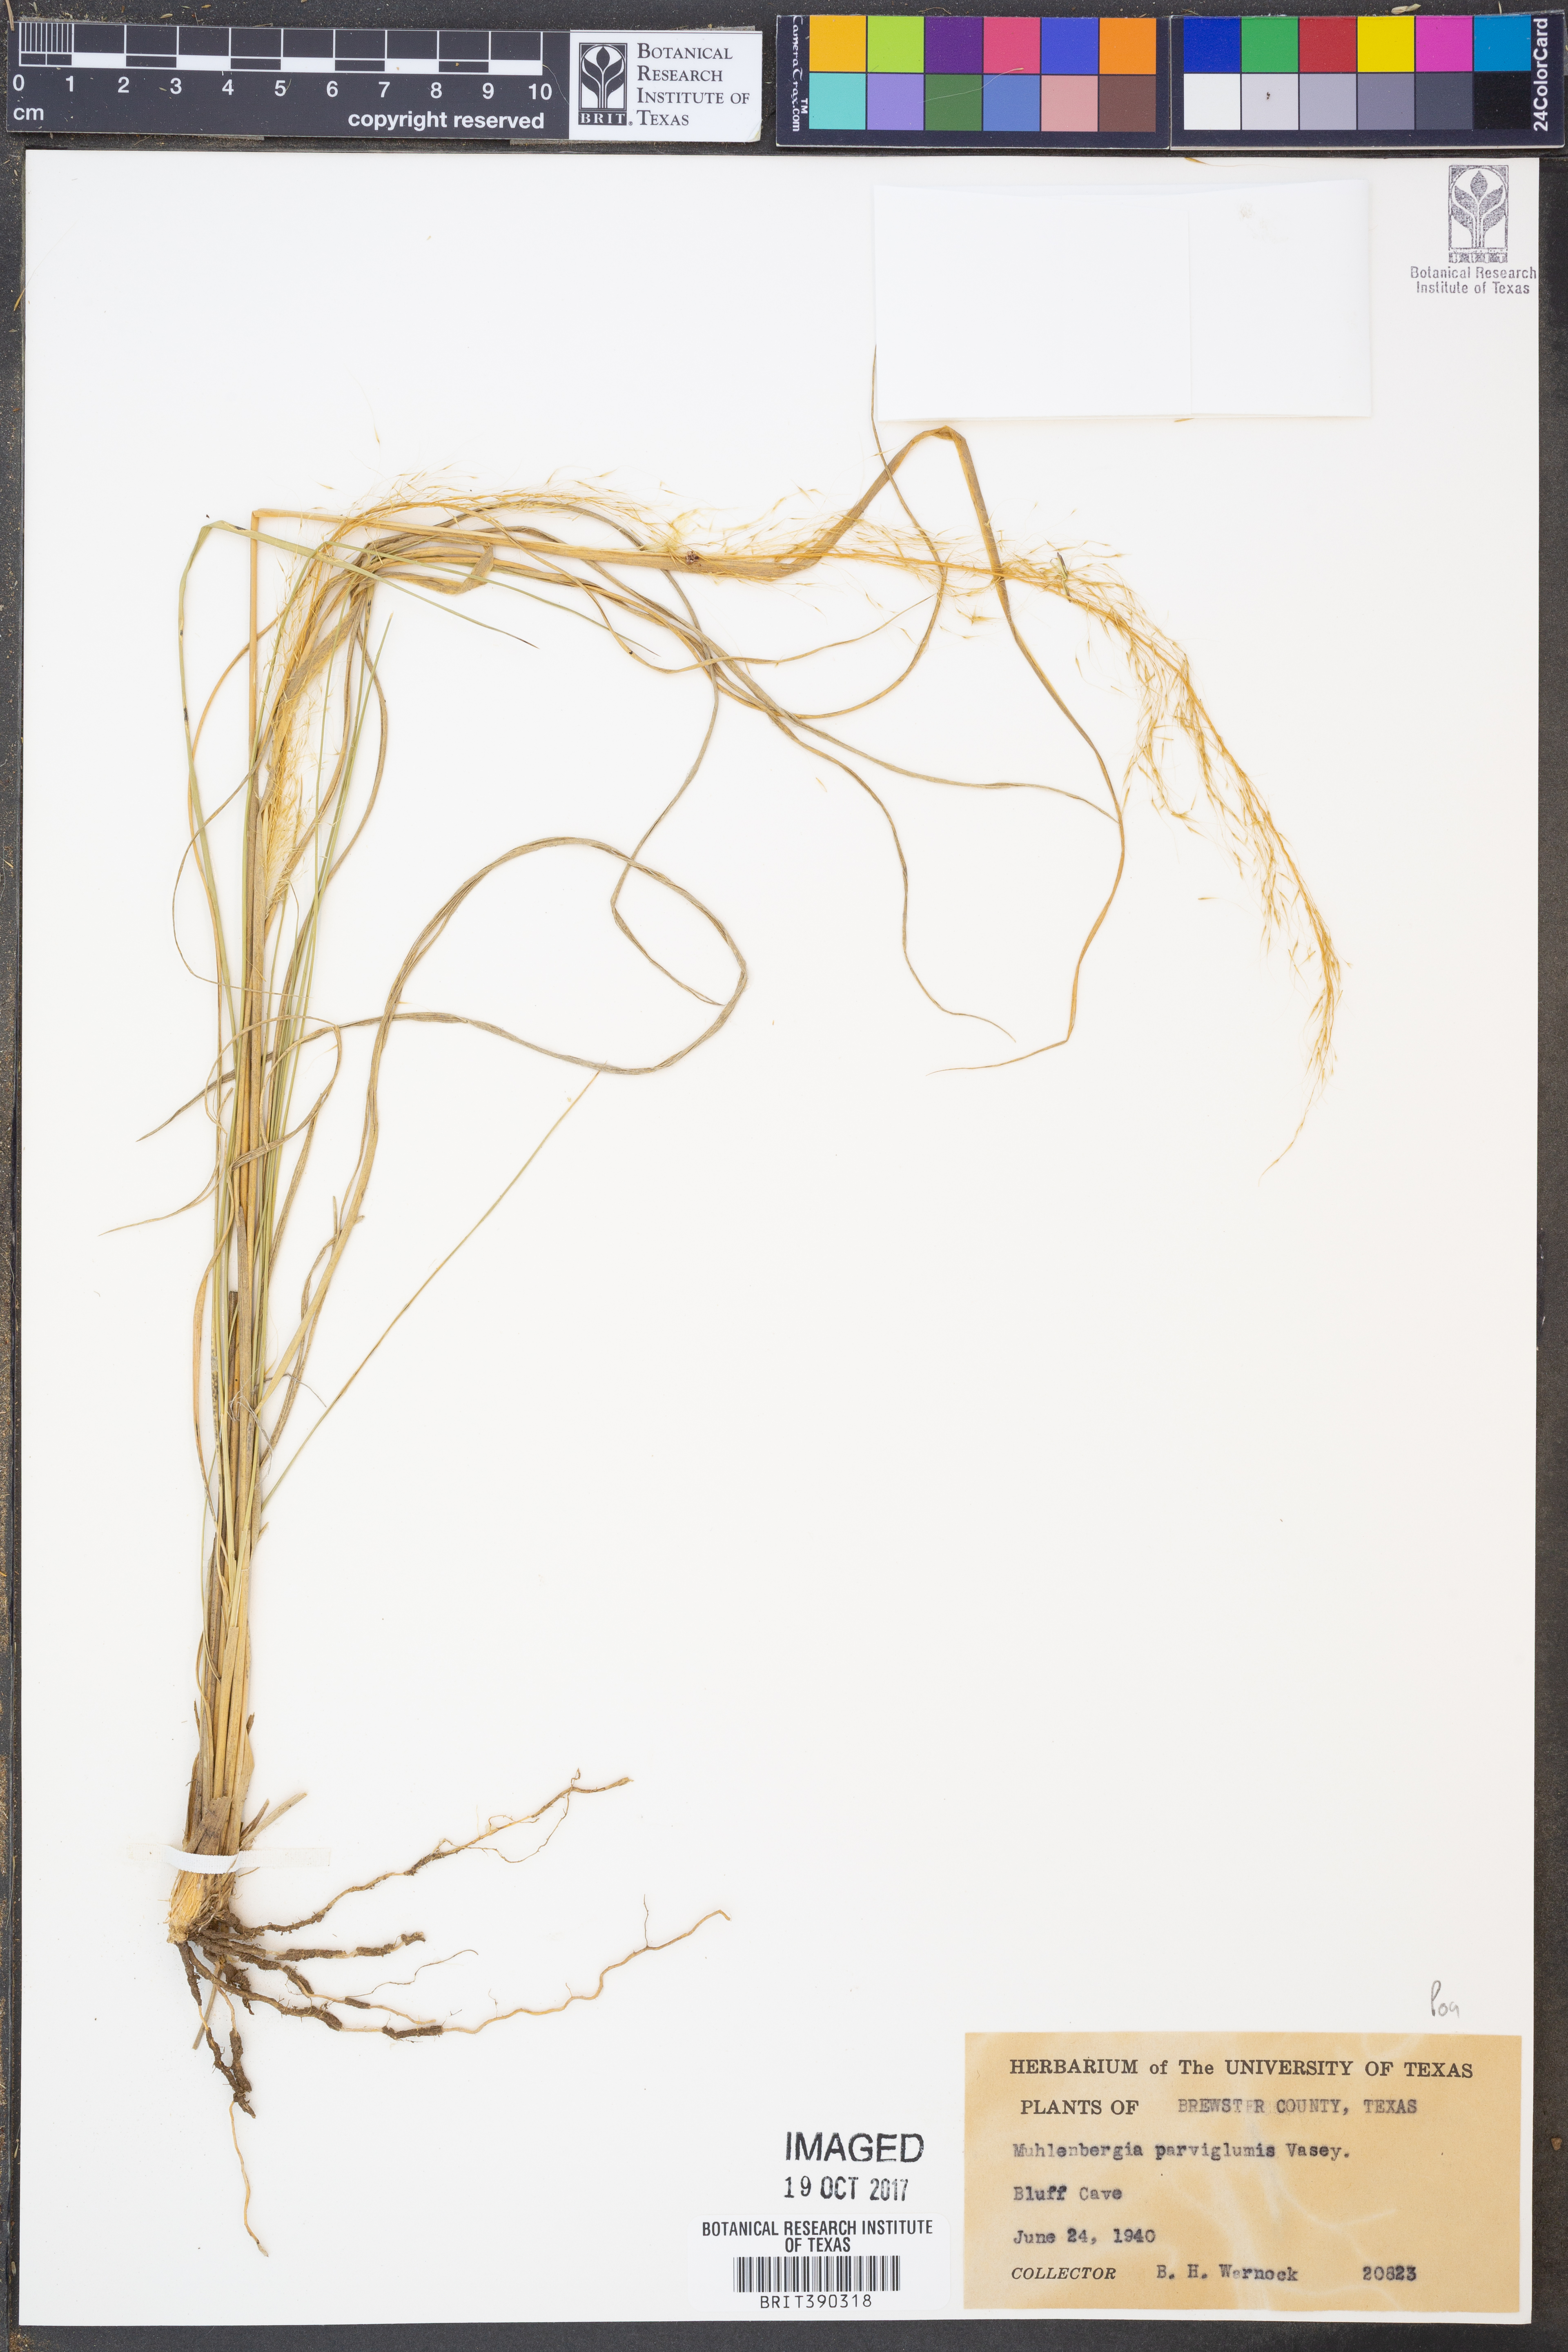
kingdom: Plantae
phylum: Tracheophyta
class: Liliopsida
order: Poales
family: Poaceae
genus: Muhlenbergia
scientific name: Muhlenbergia spiciformis
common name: Longawn muhly
